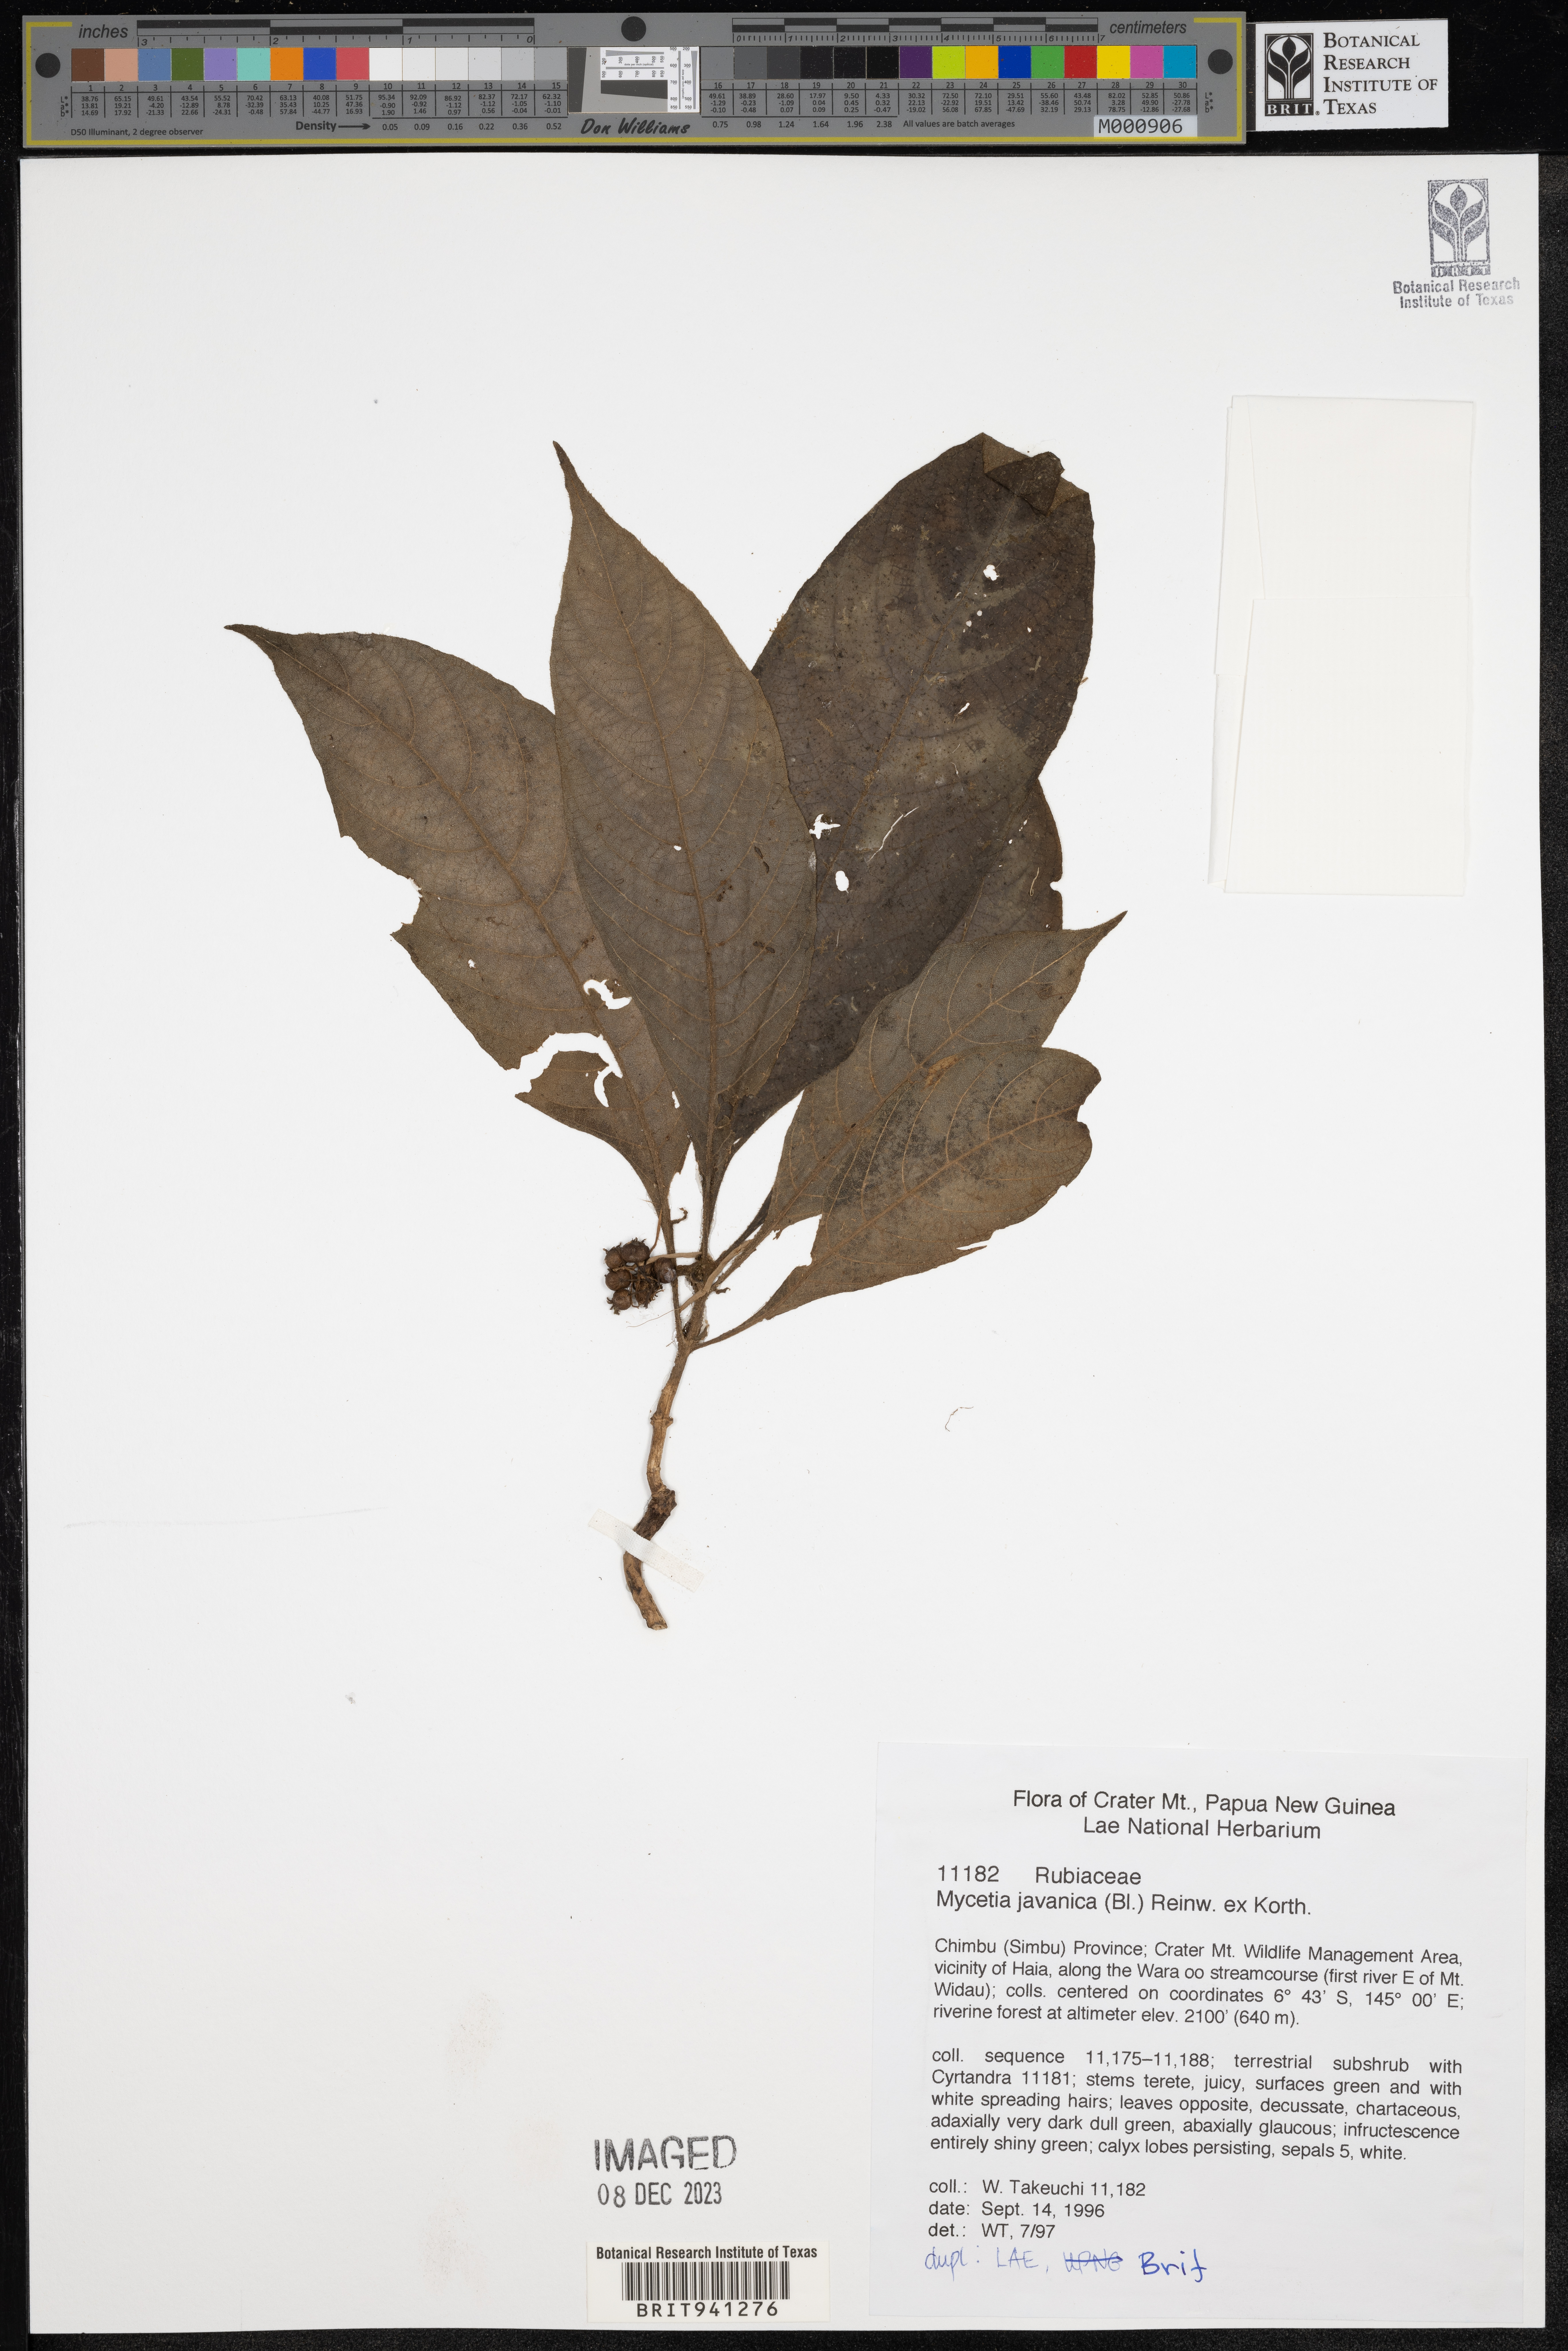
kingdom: Plantae
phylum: Tracheophyta
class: Magnoliopsida
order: Gentianales
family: Rubiaceae
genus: Mycetia
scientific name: Mycetia
